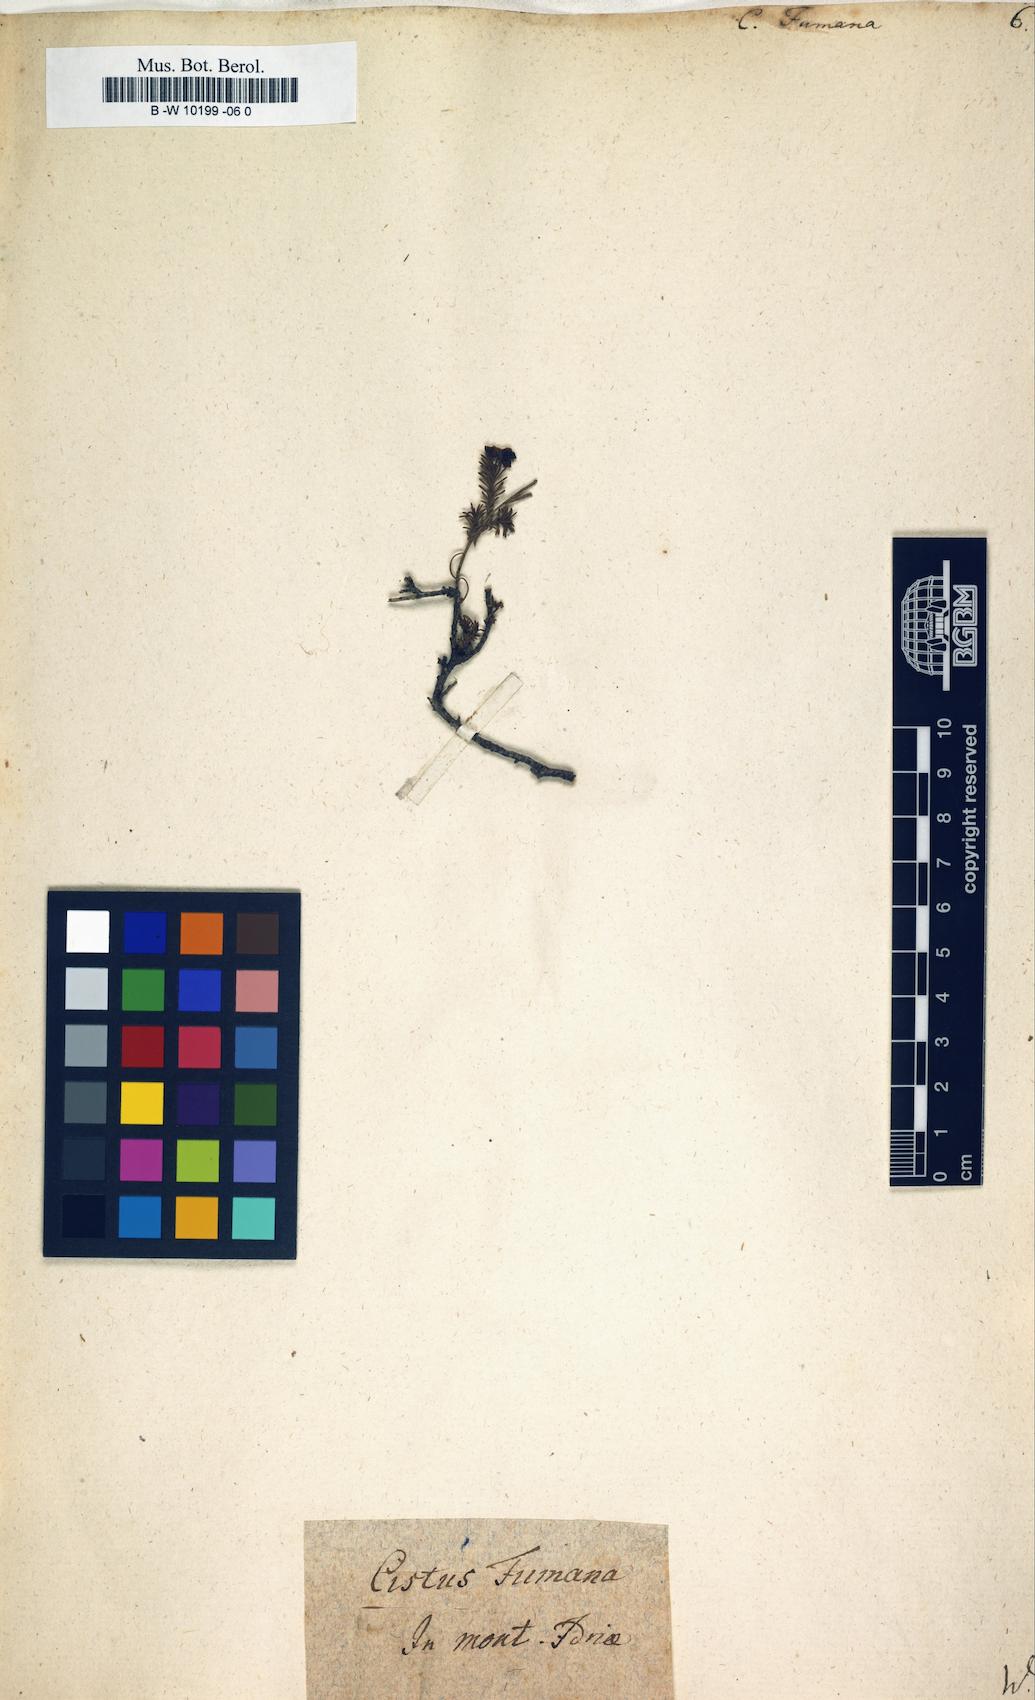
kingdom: Plantae
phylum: Tracheophyta
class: Magnoliopsida
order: Malvales
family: Cistaceae
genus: Fumana
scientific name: Fumana procumbens
